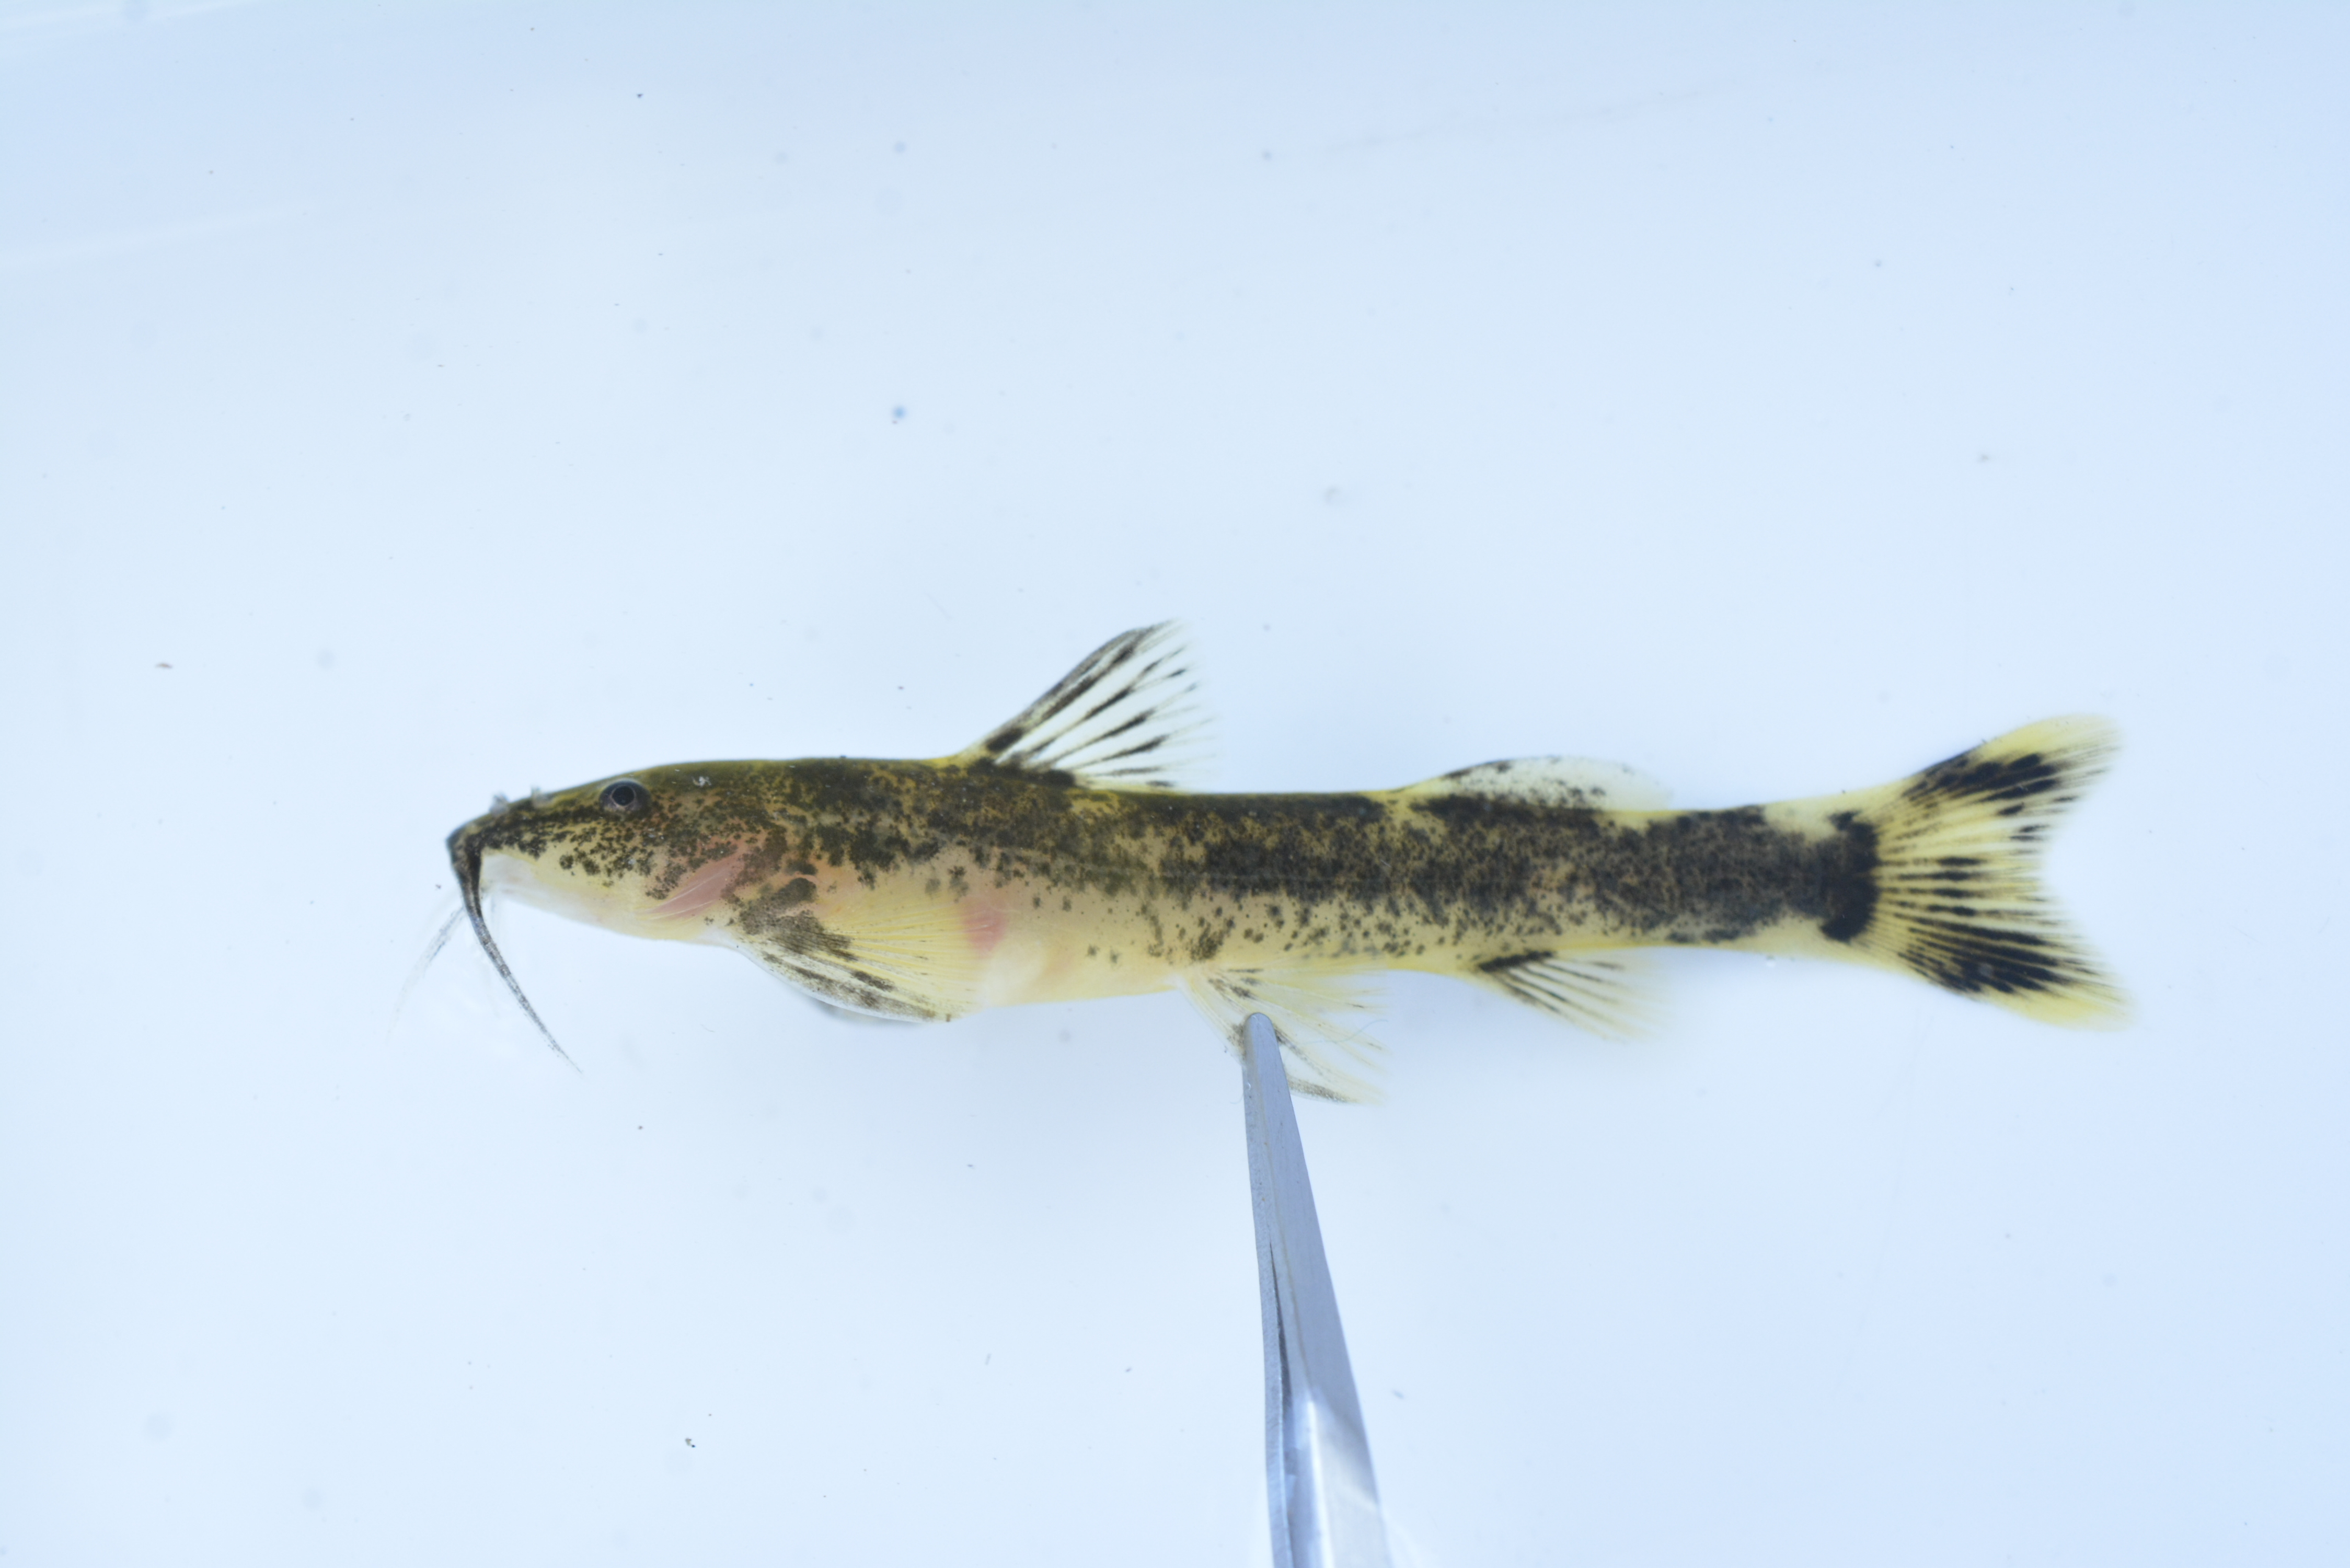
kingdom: Animalia
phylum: Chordata
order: Siluriformes
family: Amphiliidae
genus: Amphilius
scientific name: Amphilius uranoscopus
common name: Stargazer mountain catfish
